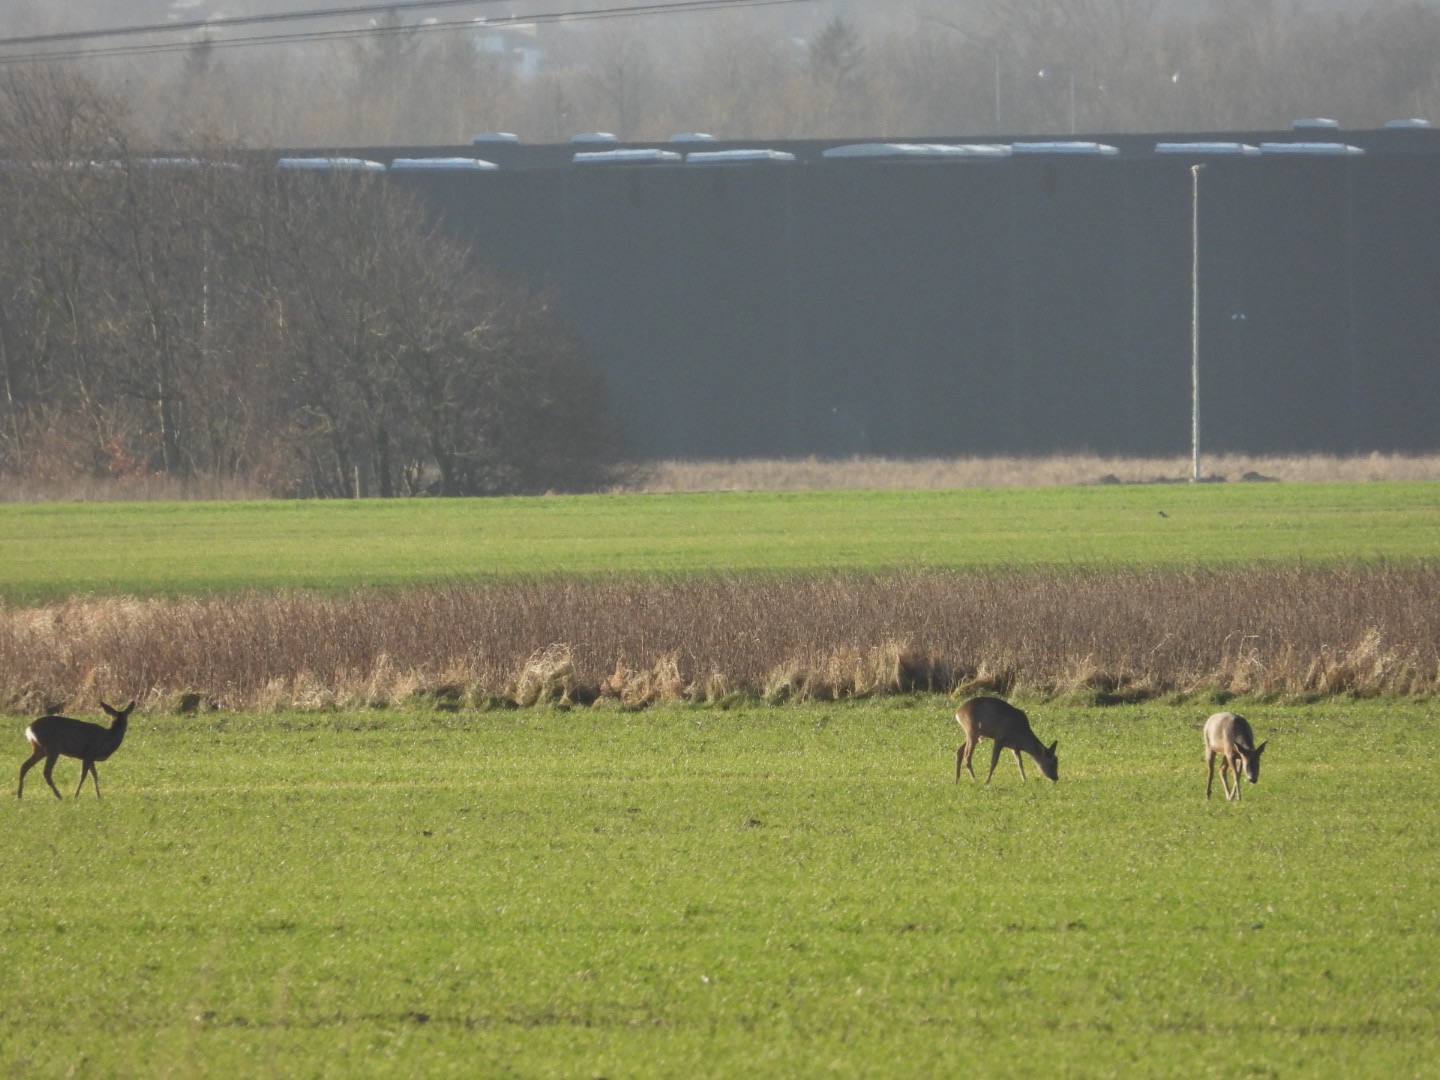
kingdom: Animalia
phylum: Chordata
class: Mammalia
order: Artiodactyla
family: Cervidae
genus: Capreolus
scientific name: Capreolus capreolus
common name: Rådyr
